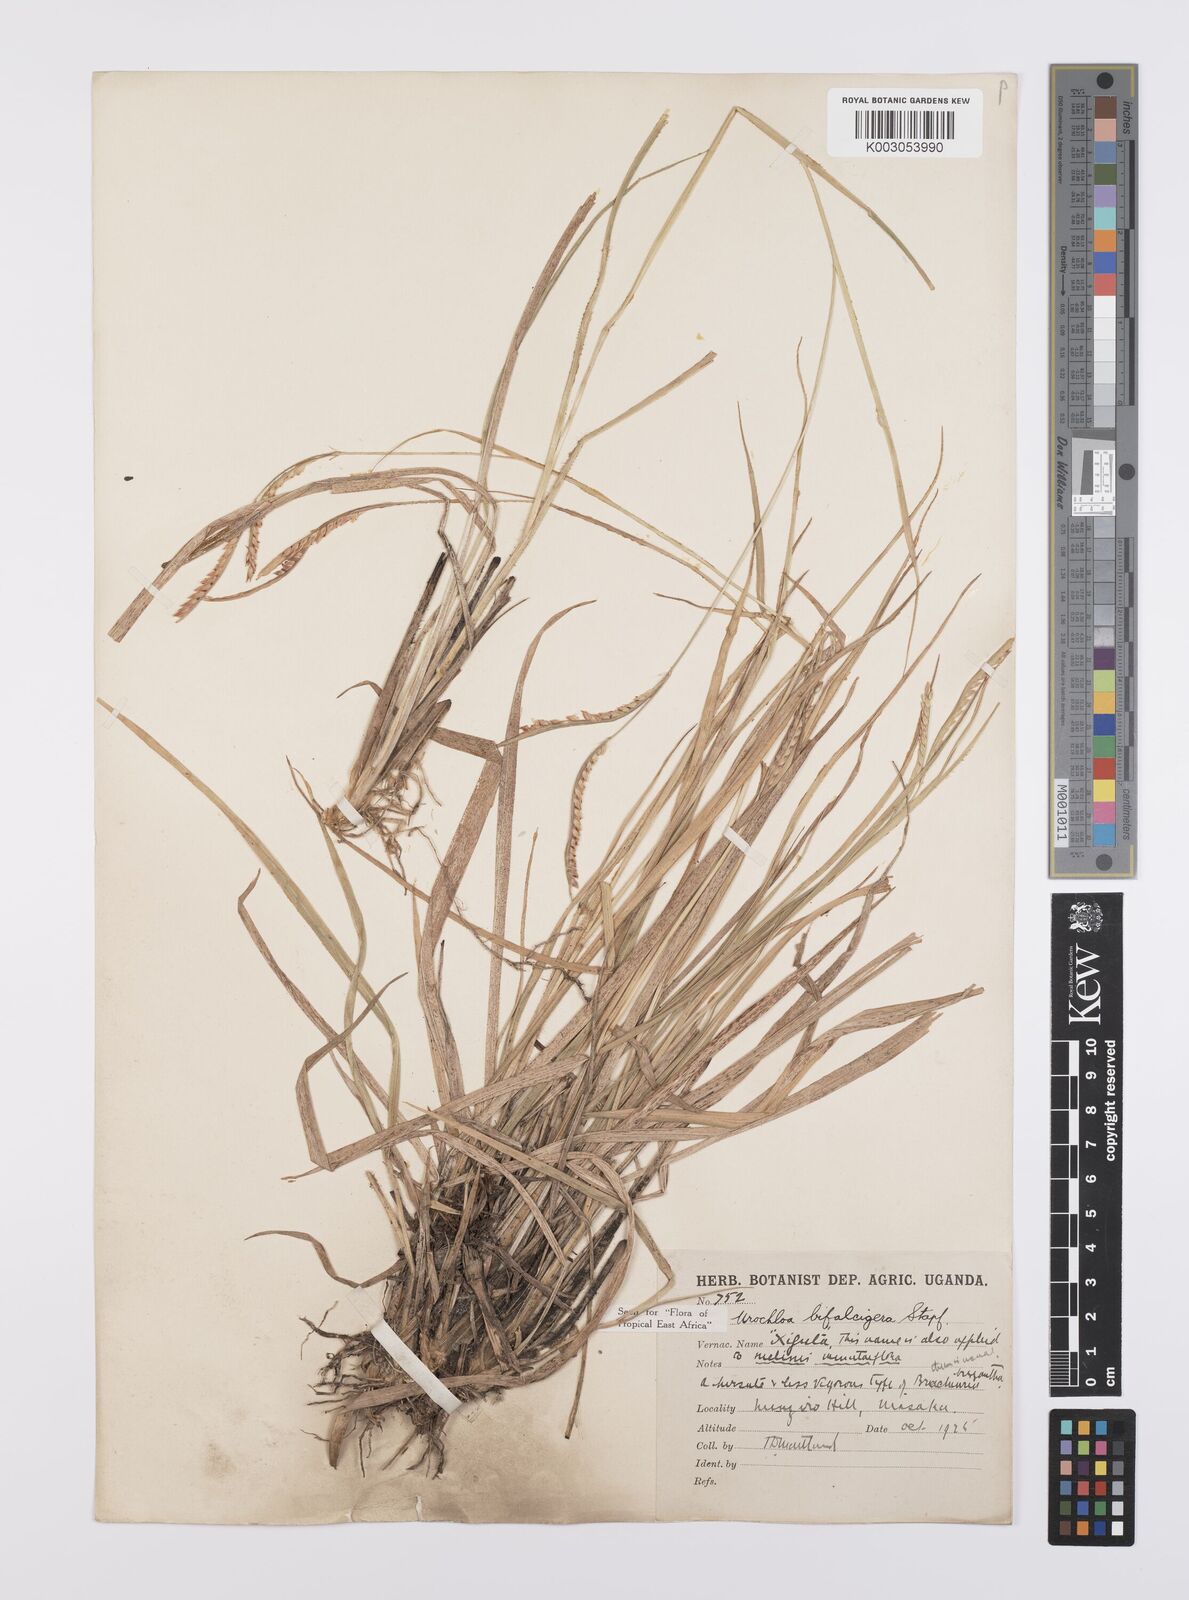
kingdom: Plantae
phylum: Tracheophyta
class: Liliopsida
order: Poales
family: Poaceae
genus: Urochloa
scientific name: Urochloa platynota
